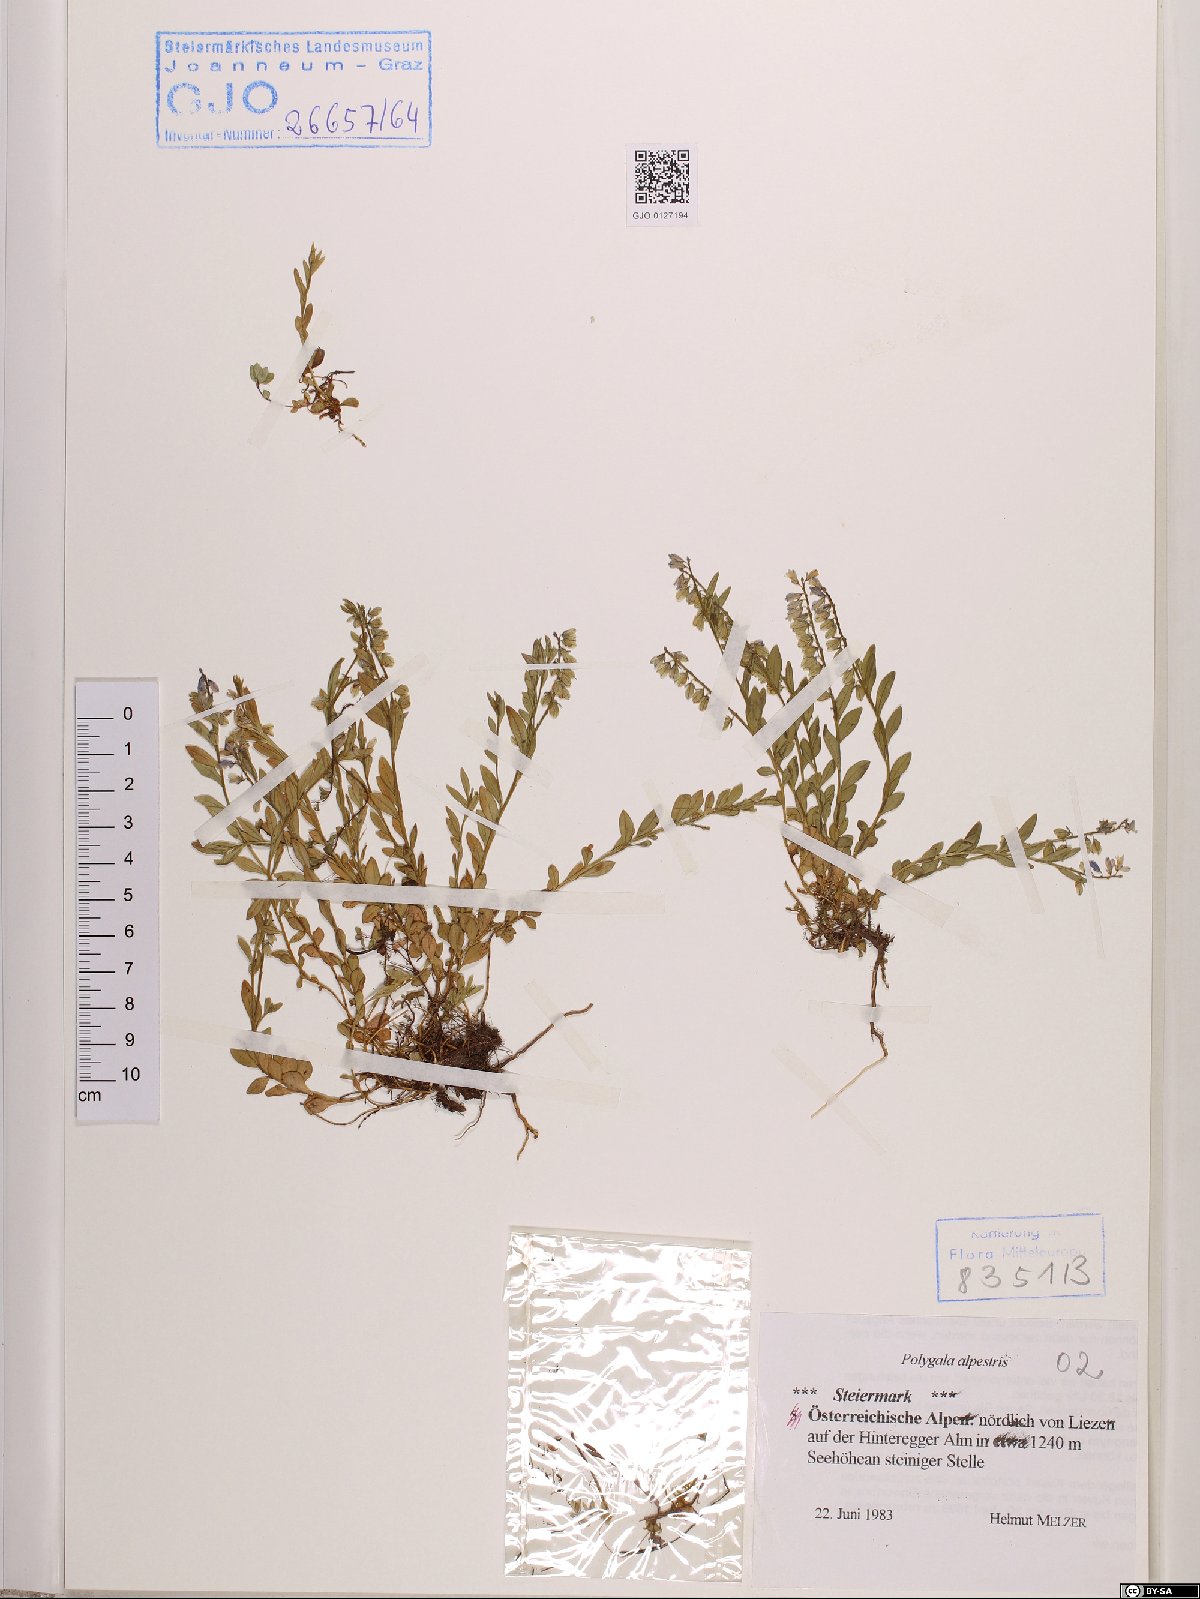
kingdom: Plantae
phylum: Tracheophyta
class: Magnoliopsida
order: Fabales
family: Polygalaceae
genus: Polygala
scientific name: Polygala alpestris
